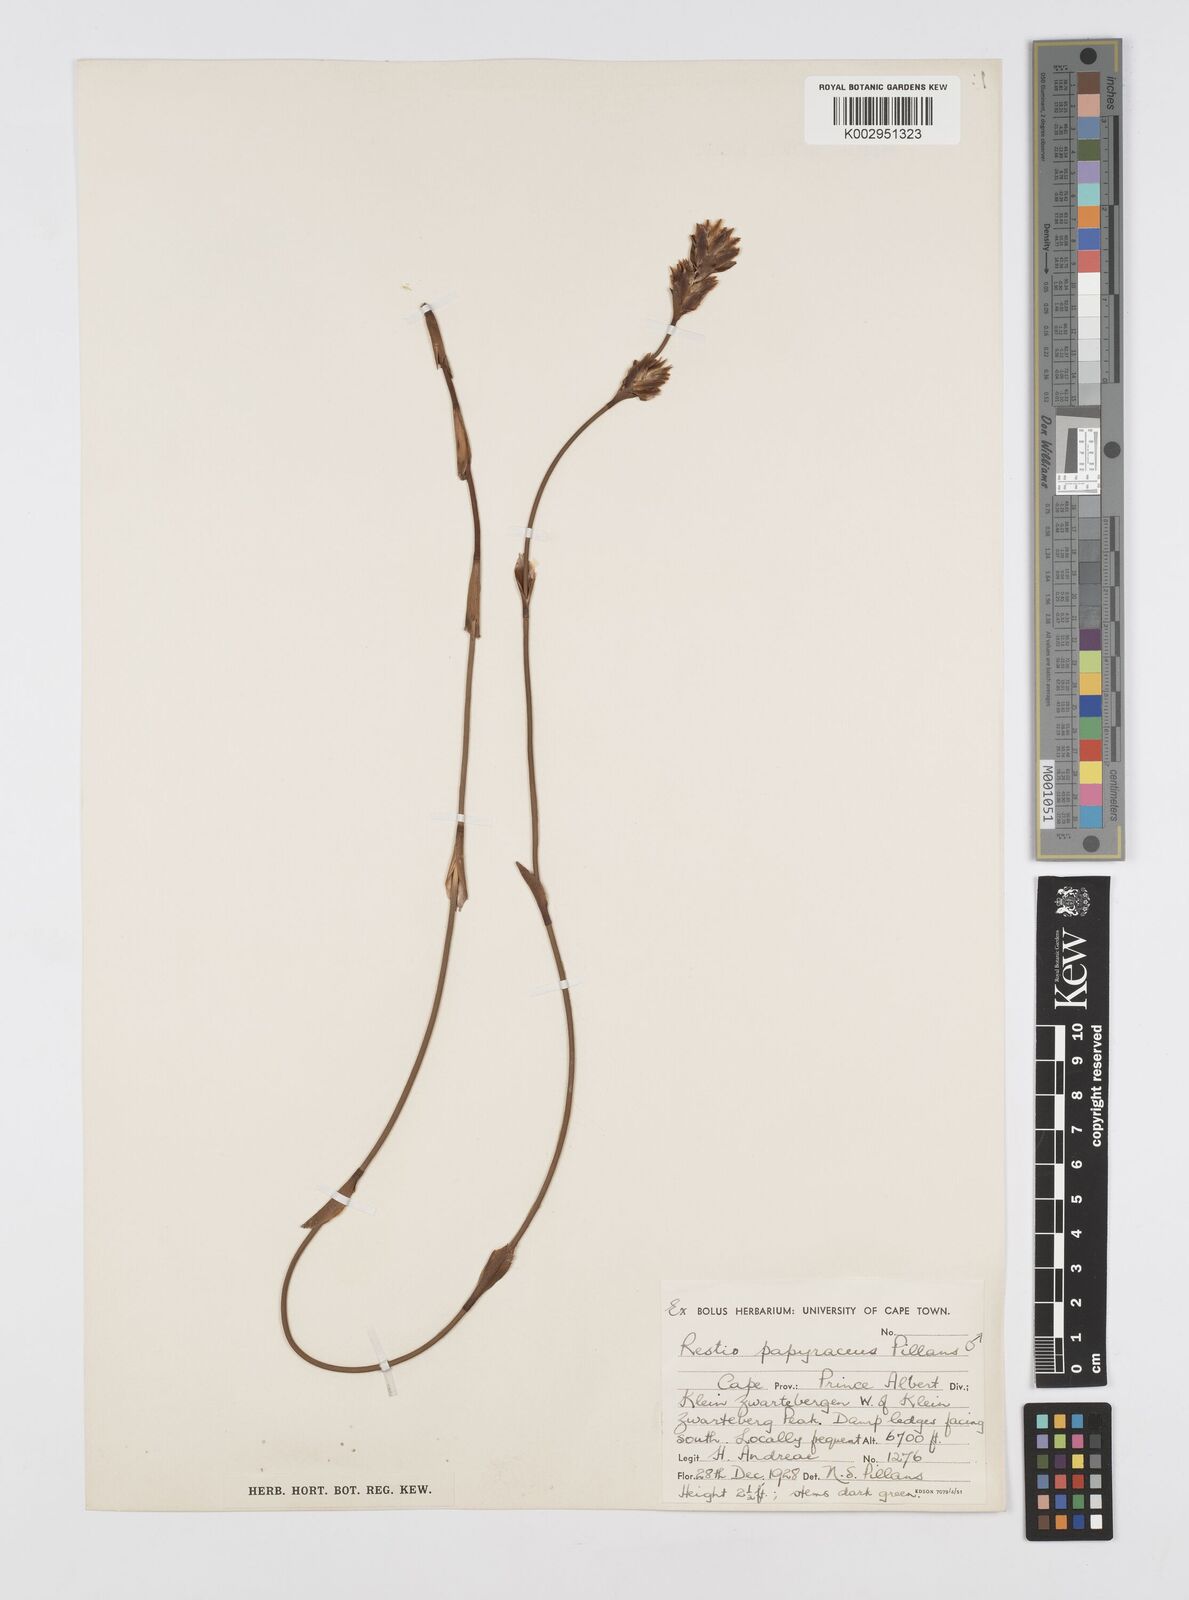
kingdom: Plantae
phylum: Tracheophyta
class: Liliopsida
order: Poales
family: Restionaceae
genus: Restio
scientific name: Restio papyraceus
